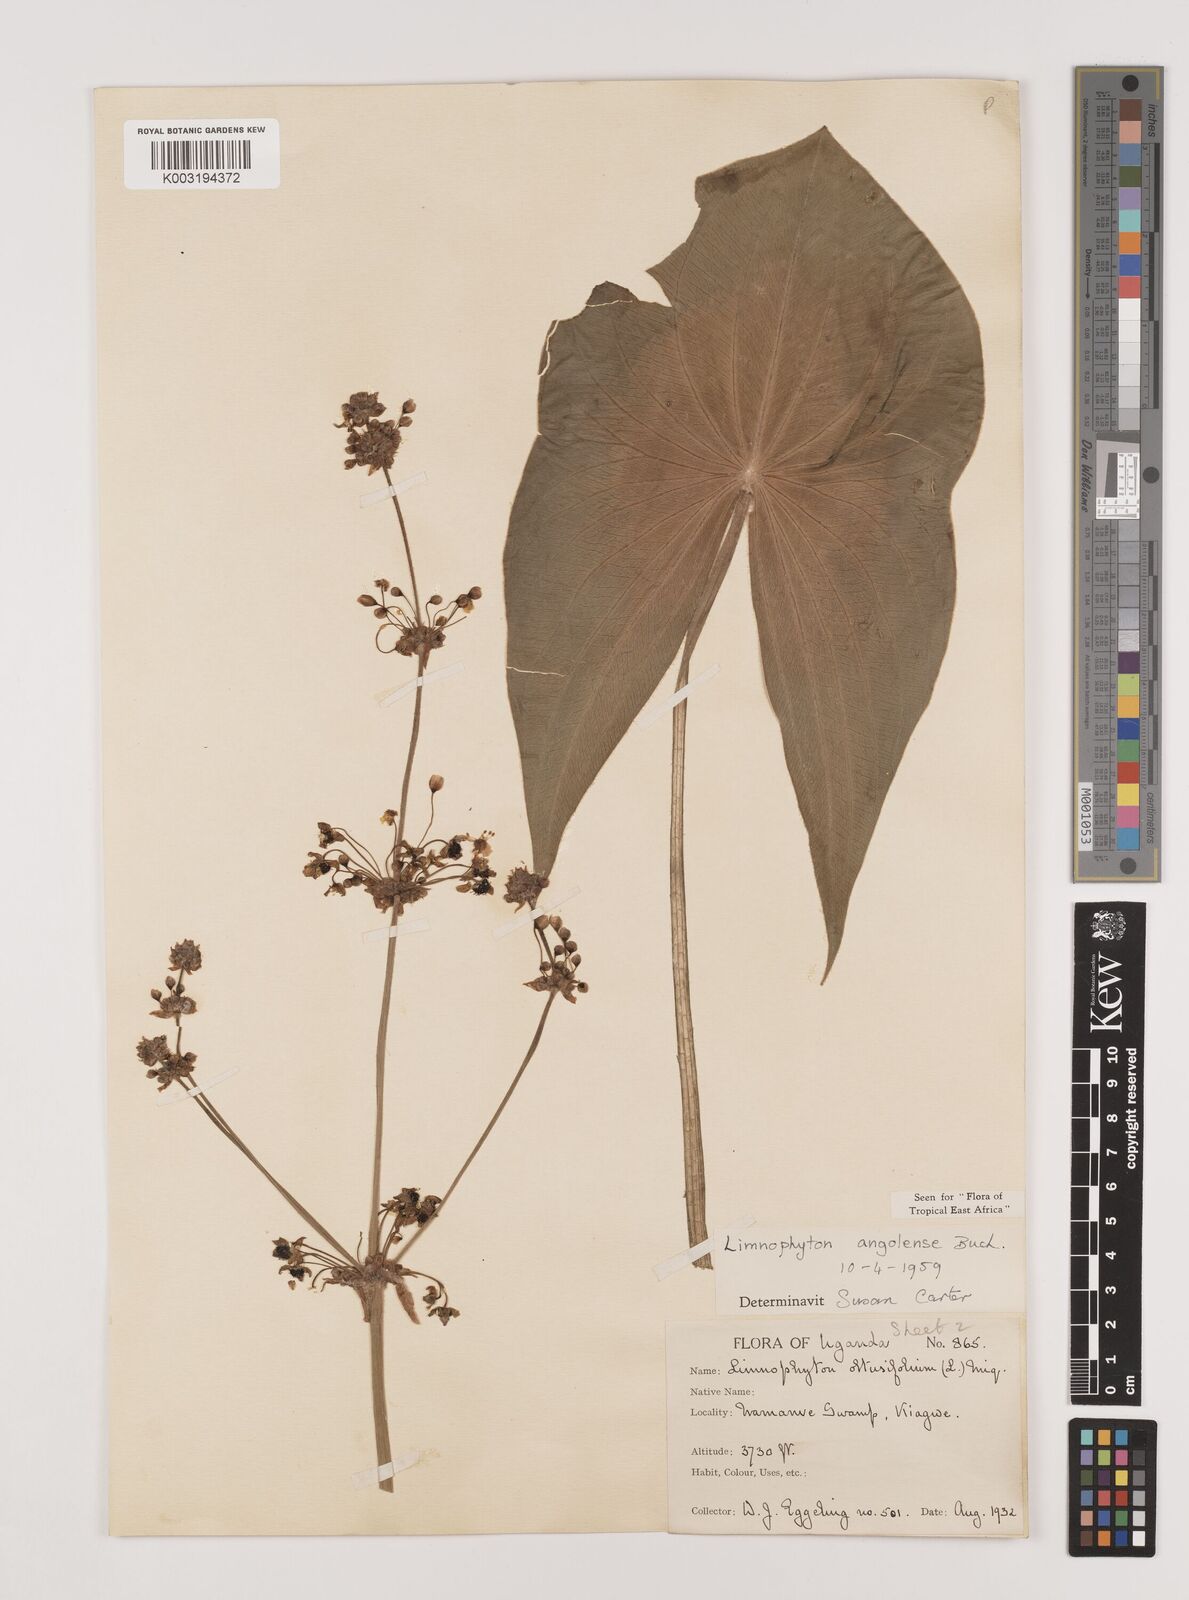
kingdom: Plantae
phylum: Tracheophyta
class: Liliopsida
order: Alismatales
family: Alismataceae
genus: Limnophyton
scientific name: Limnophyton angolense
